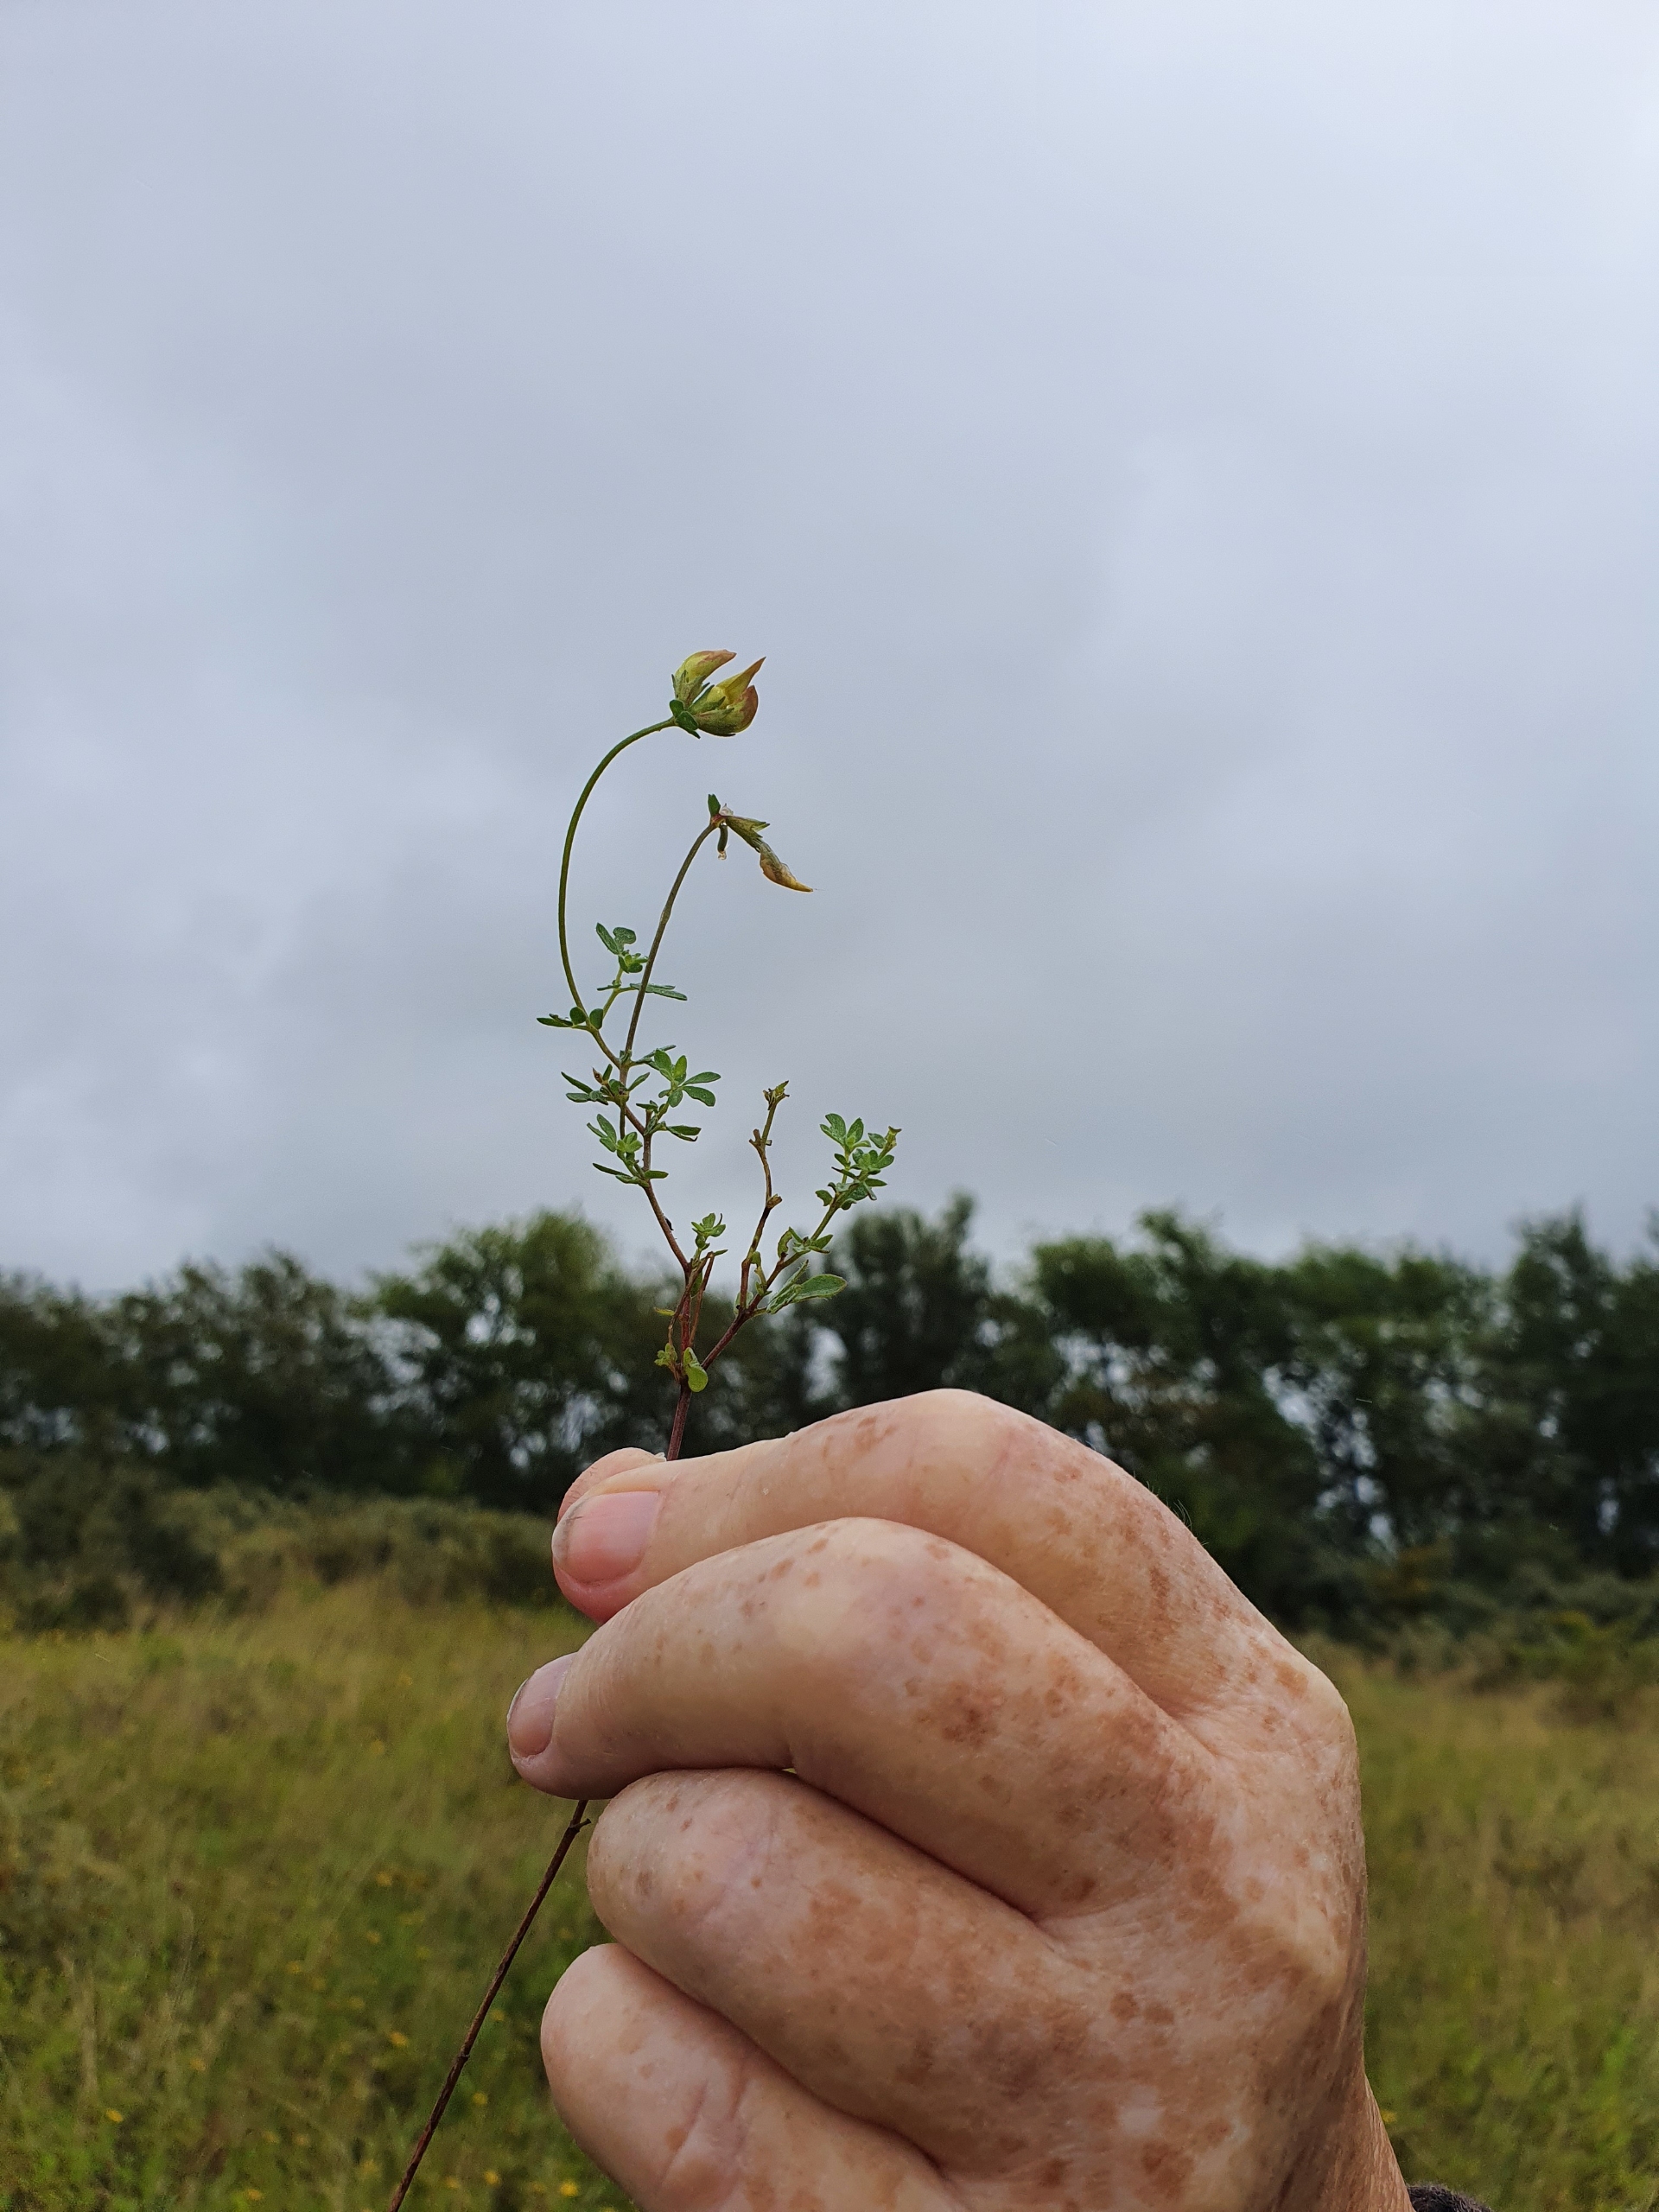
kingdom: Plantae
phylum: Tracheophyta
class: Magnoliopsida
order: Fabales
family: Fabaceae
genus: Lotus
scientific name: Lotus corniculatus
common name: Almindelig kællingetand
